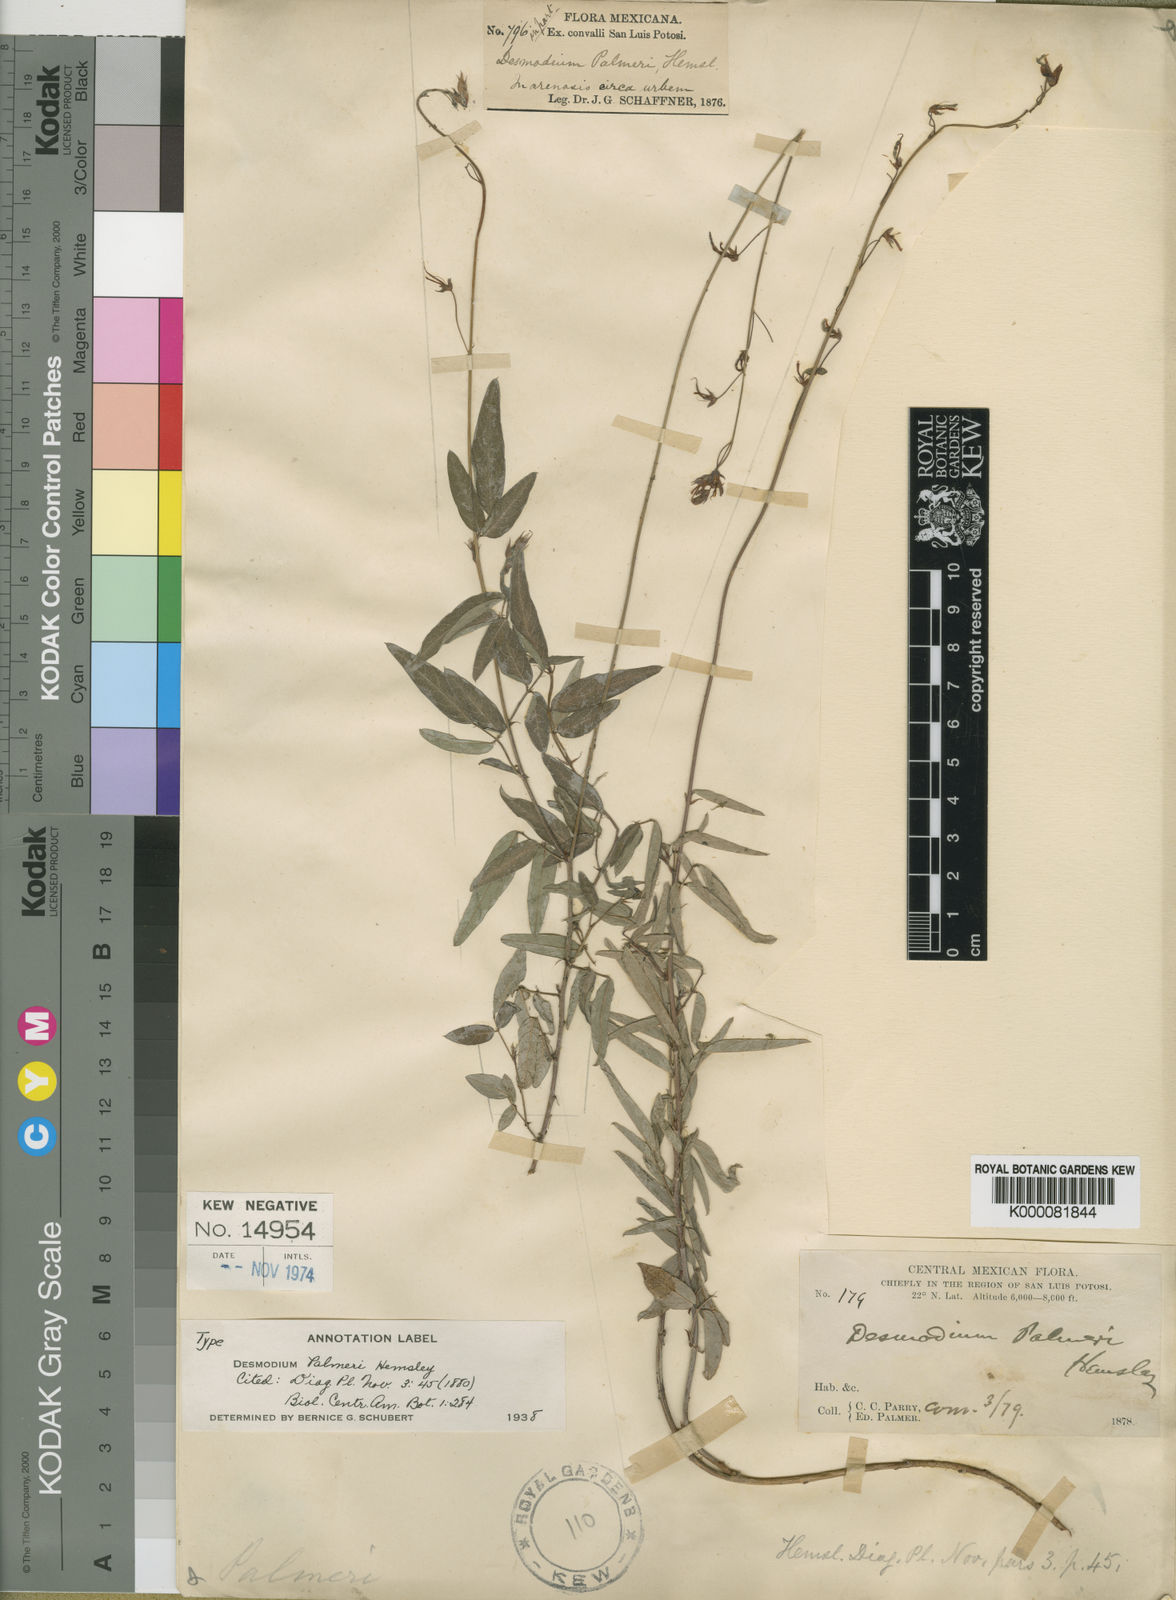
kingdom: Plantae
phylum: Tracheophyta
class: Magnoliopsida
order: Fabales
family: Fabaceae
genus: Desmodium
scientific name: Desmodium palmeri
